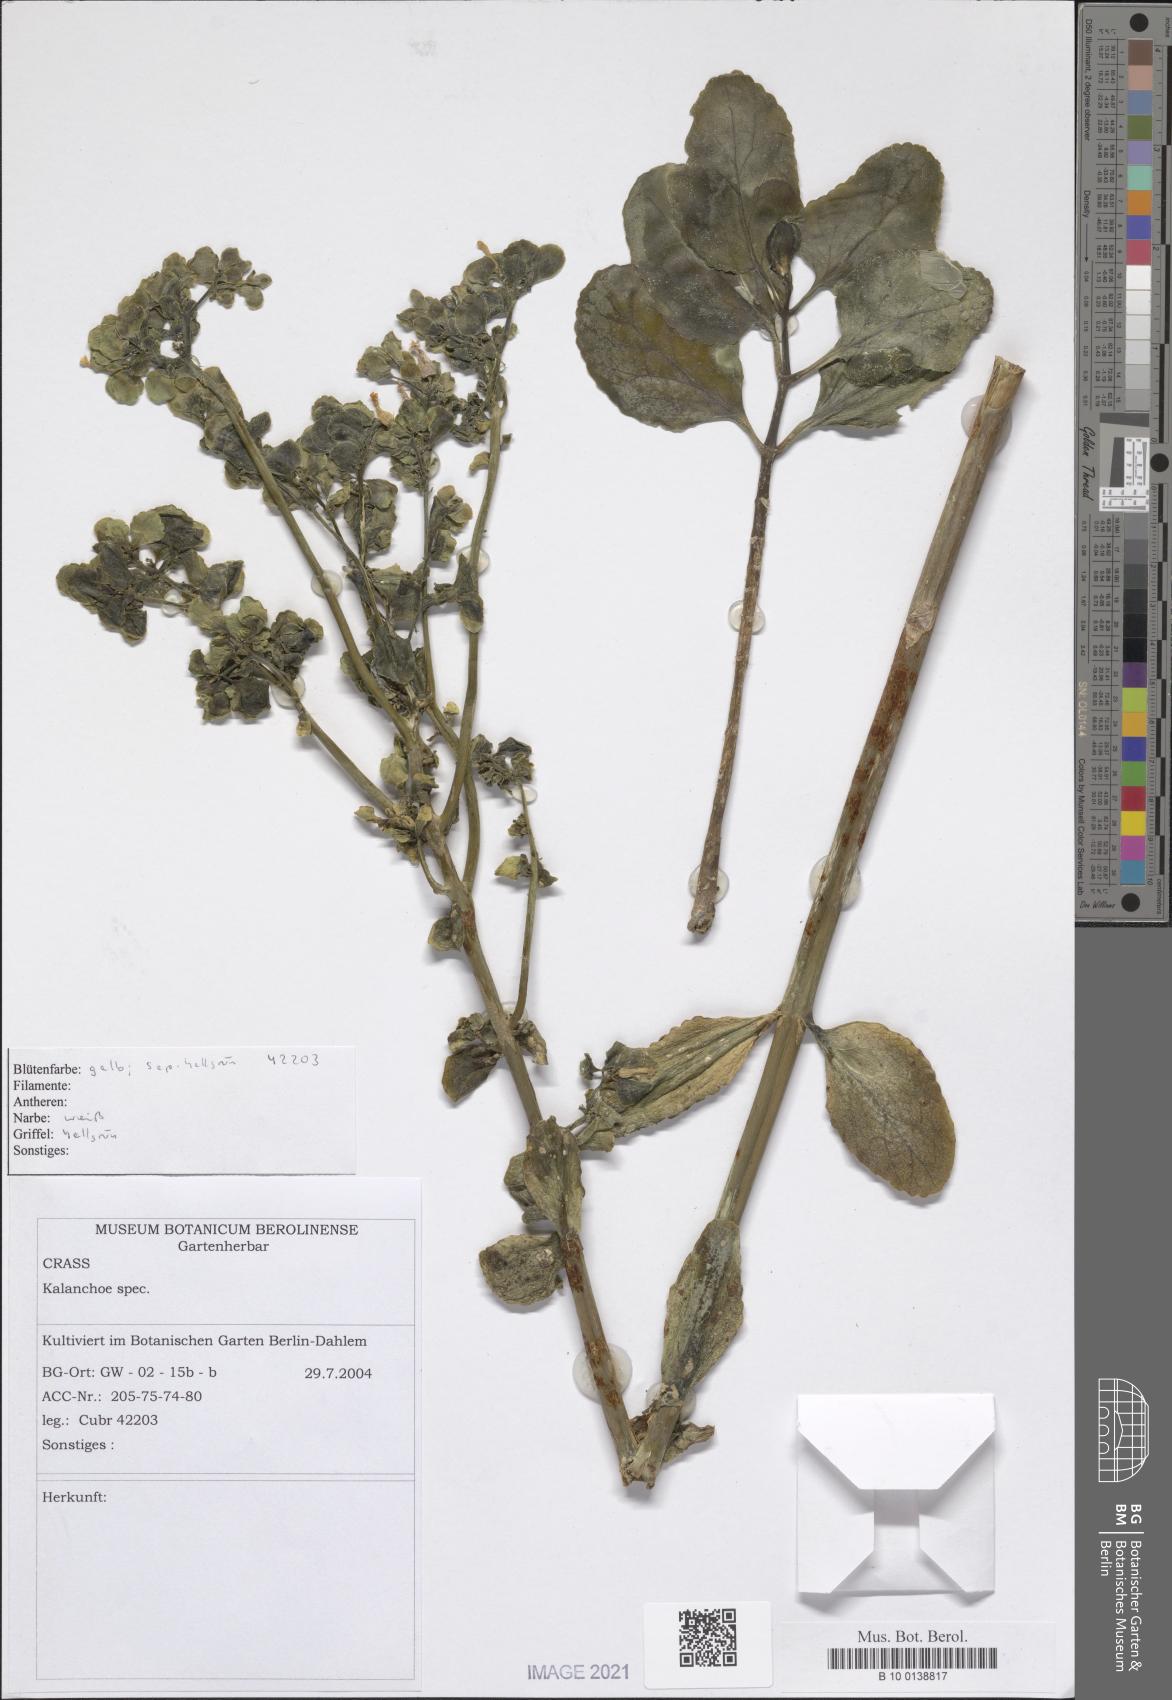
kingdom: Plantae
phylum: Tracheophyta
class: Magnoliopsida
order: Saxifragales
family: Crassulaceae
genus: Kalanchoe
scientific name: Kalanchoe
